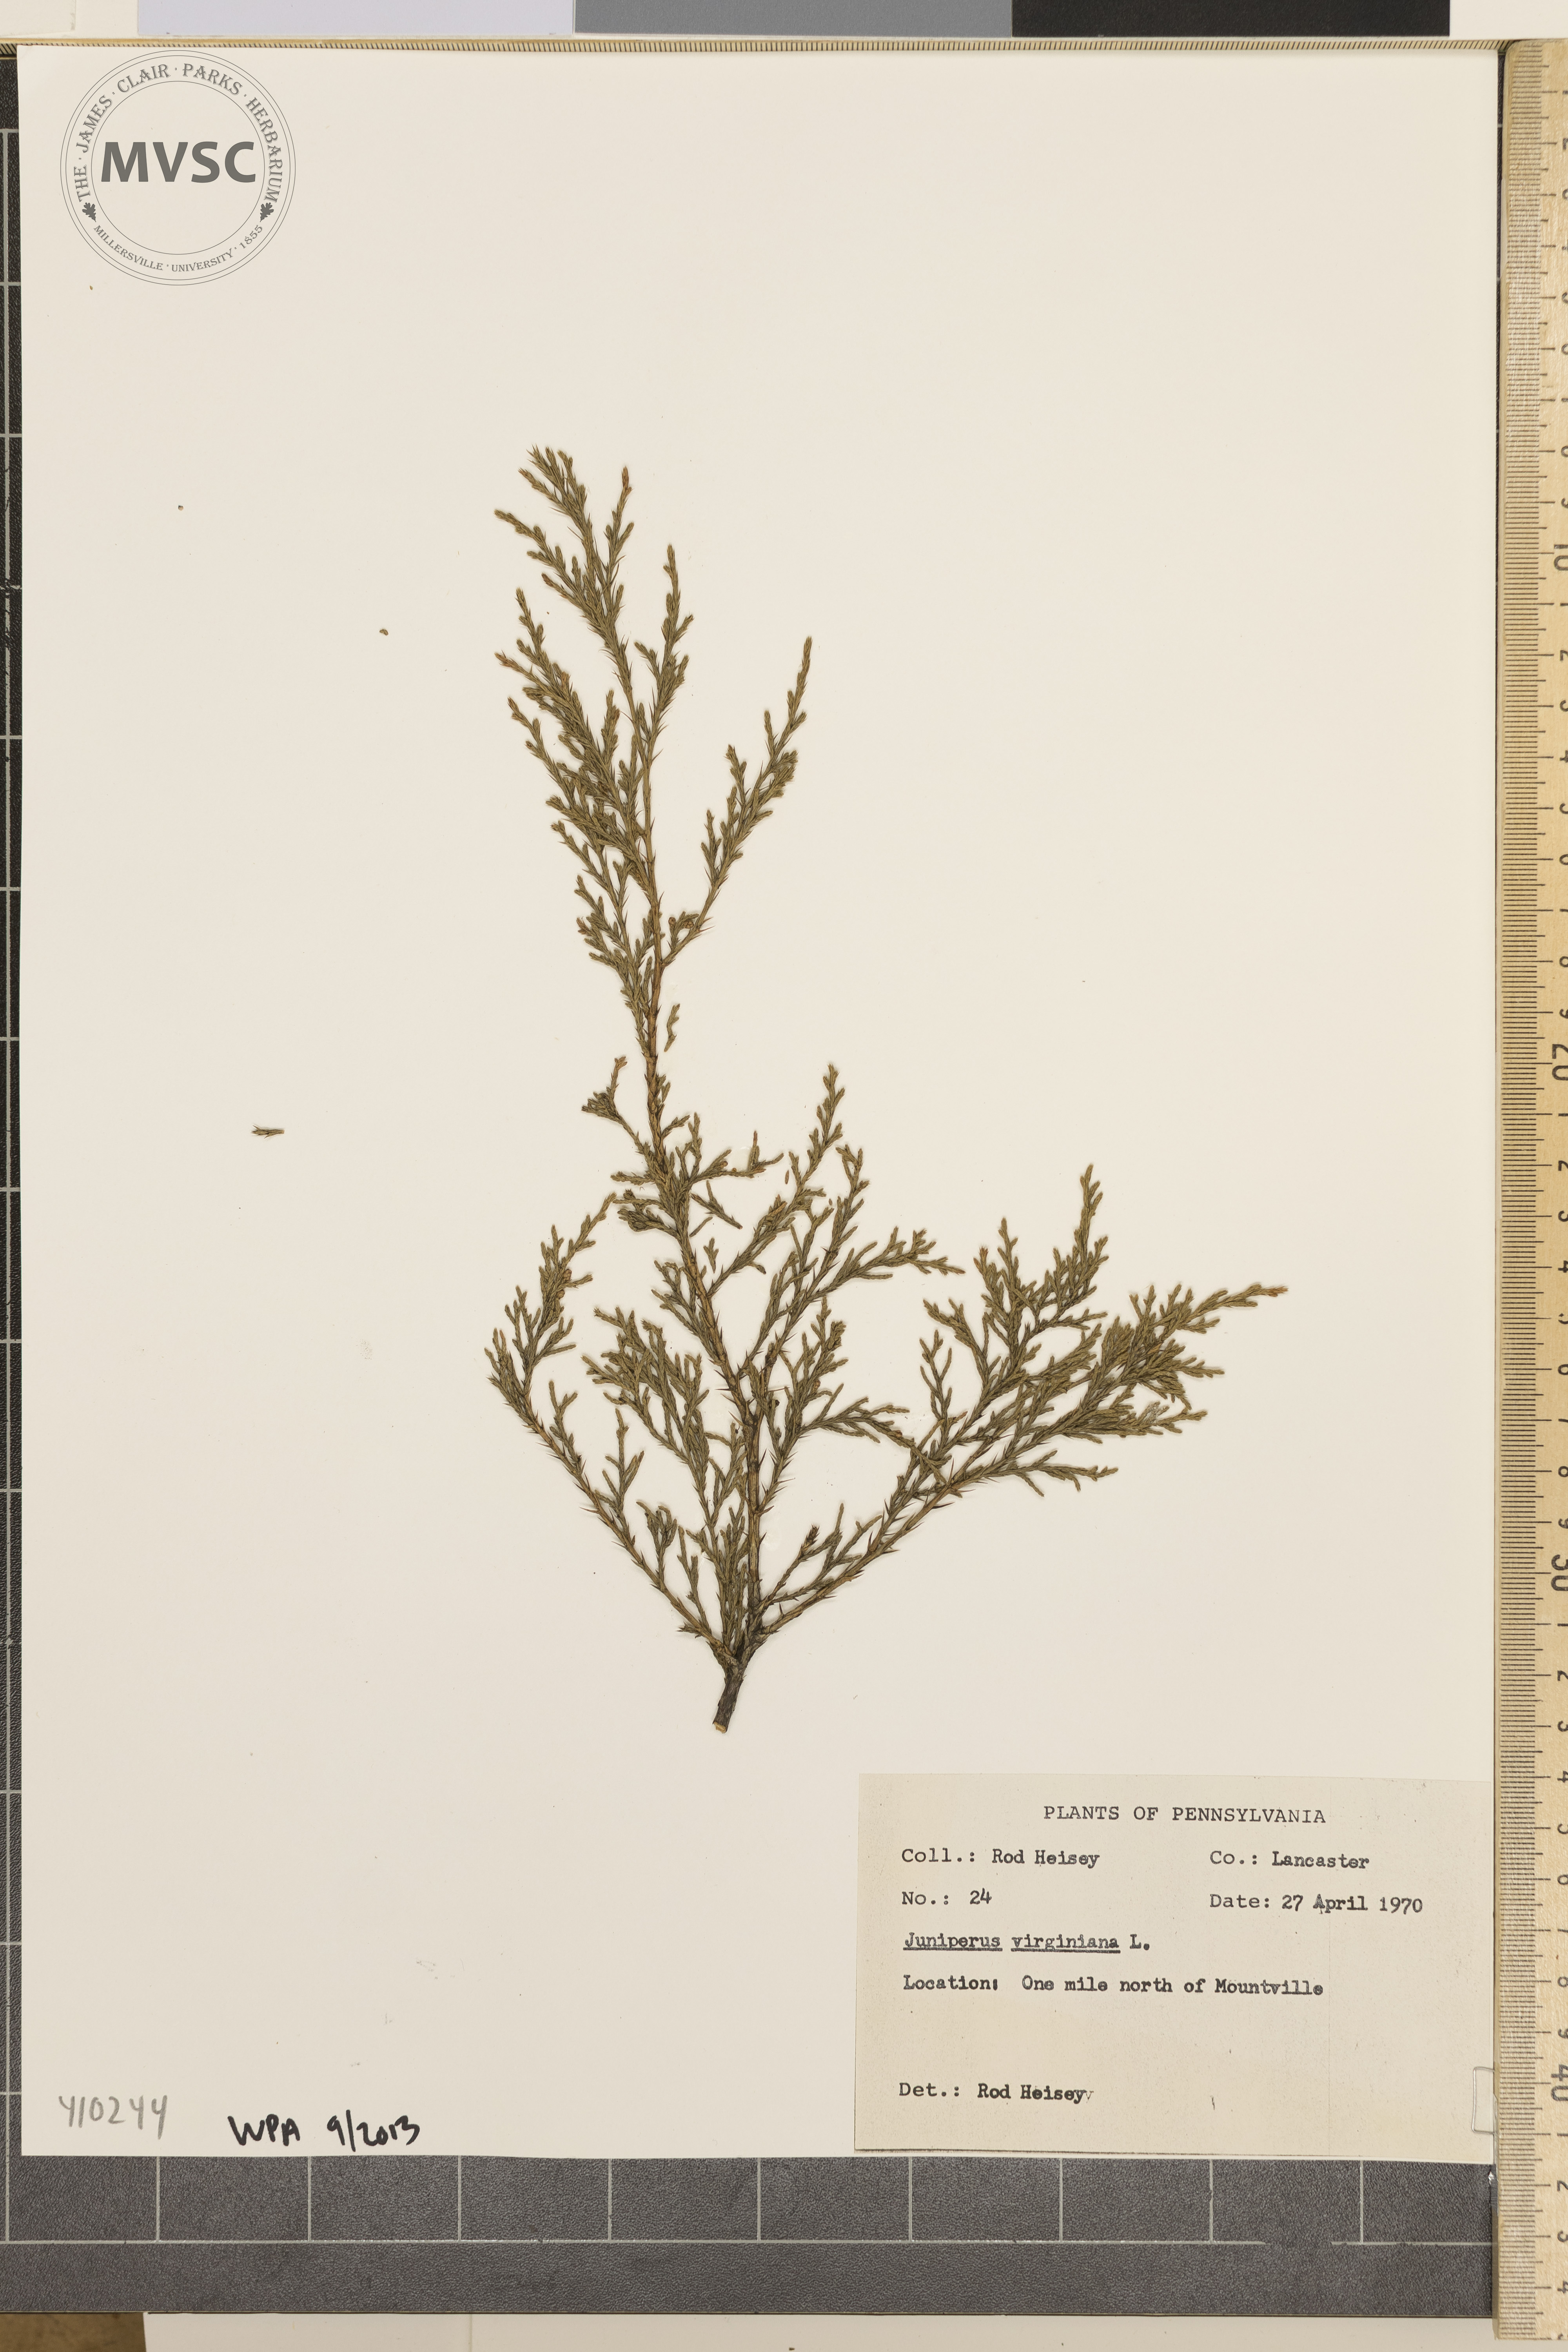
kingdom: Plantae
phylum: Tracheophyta
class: Pinopsida
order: Pinales
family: Cupressaceae
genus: Juniperus
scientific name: Juniperus virginiana
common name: Red juniper
